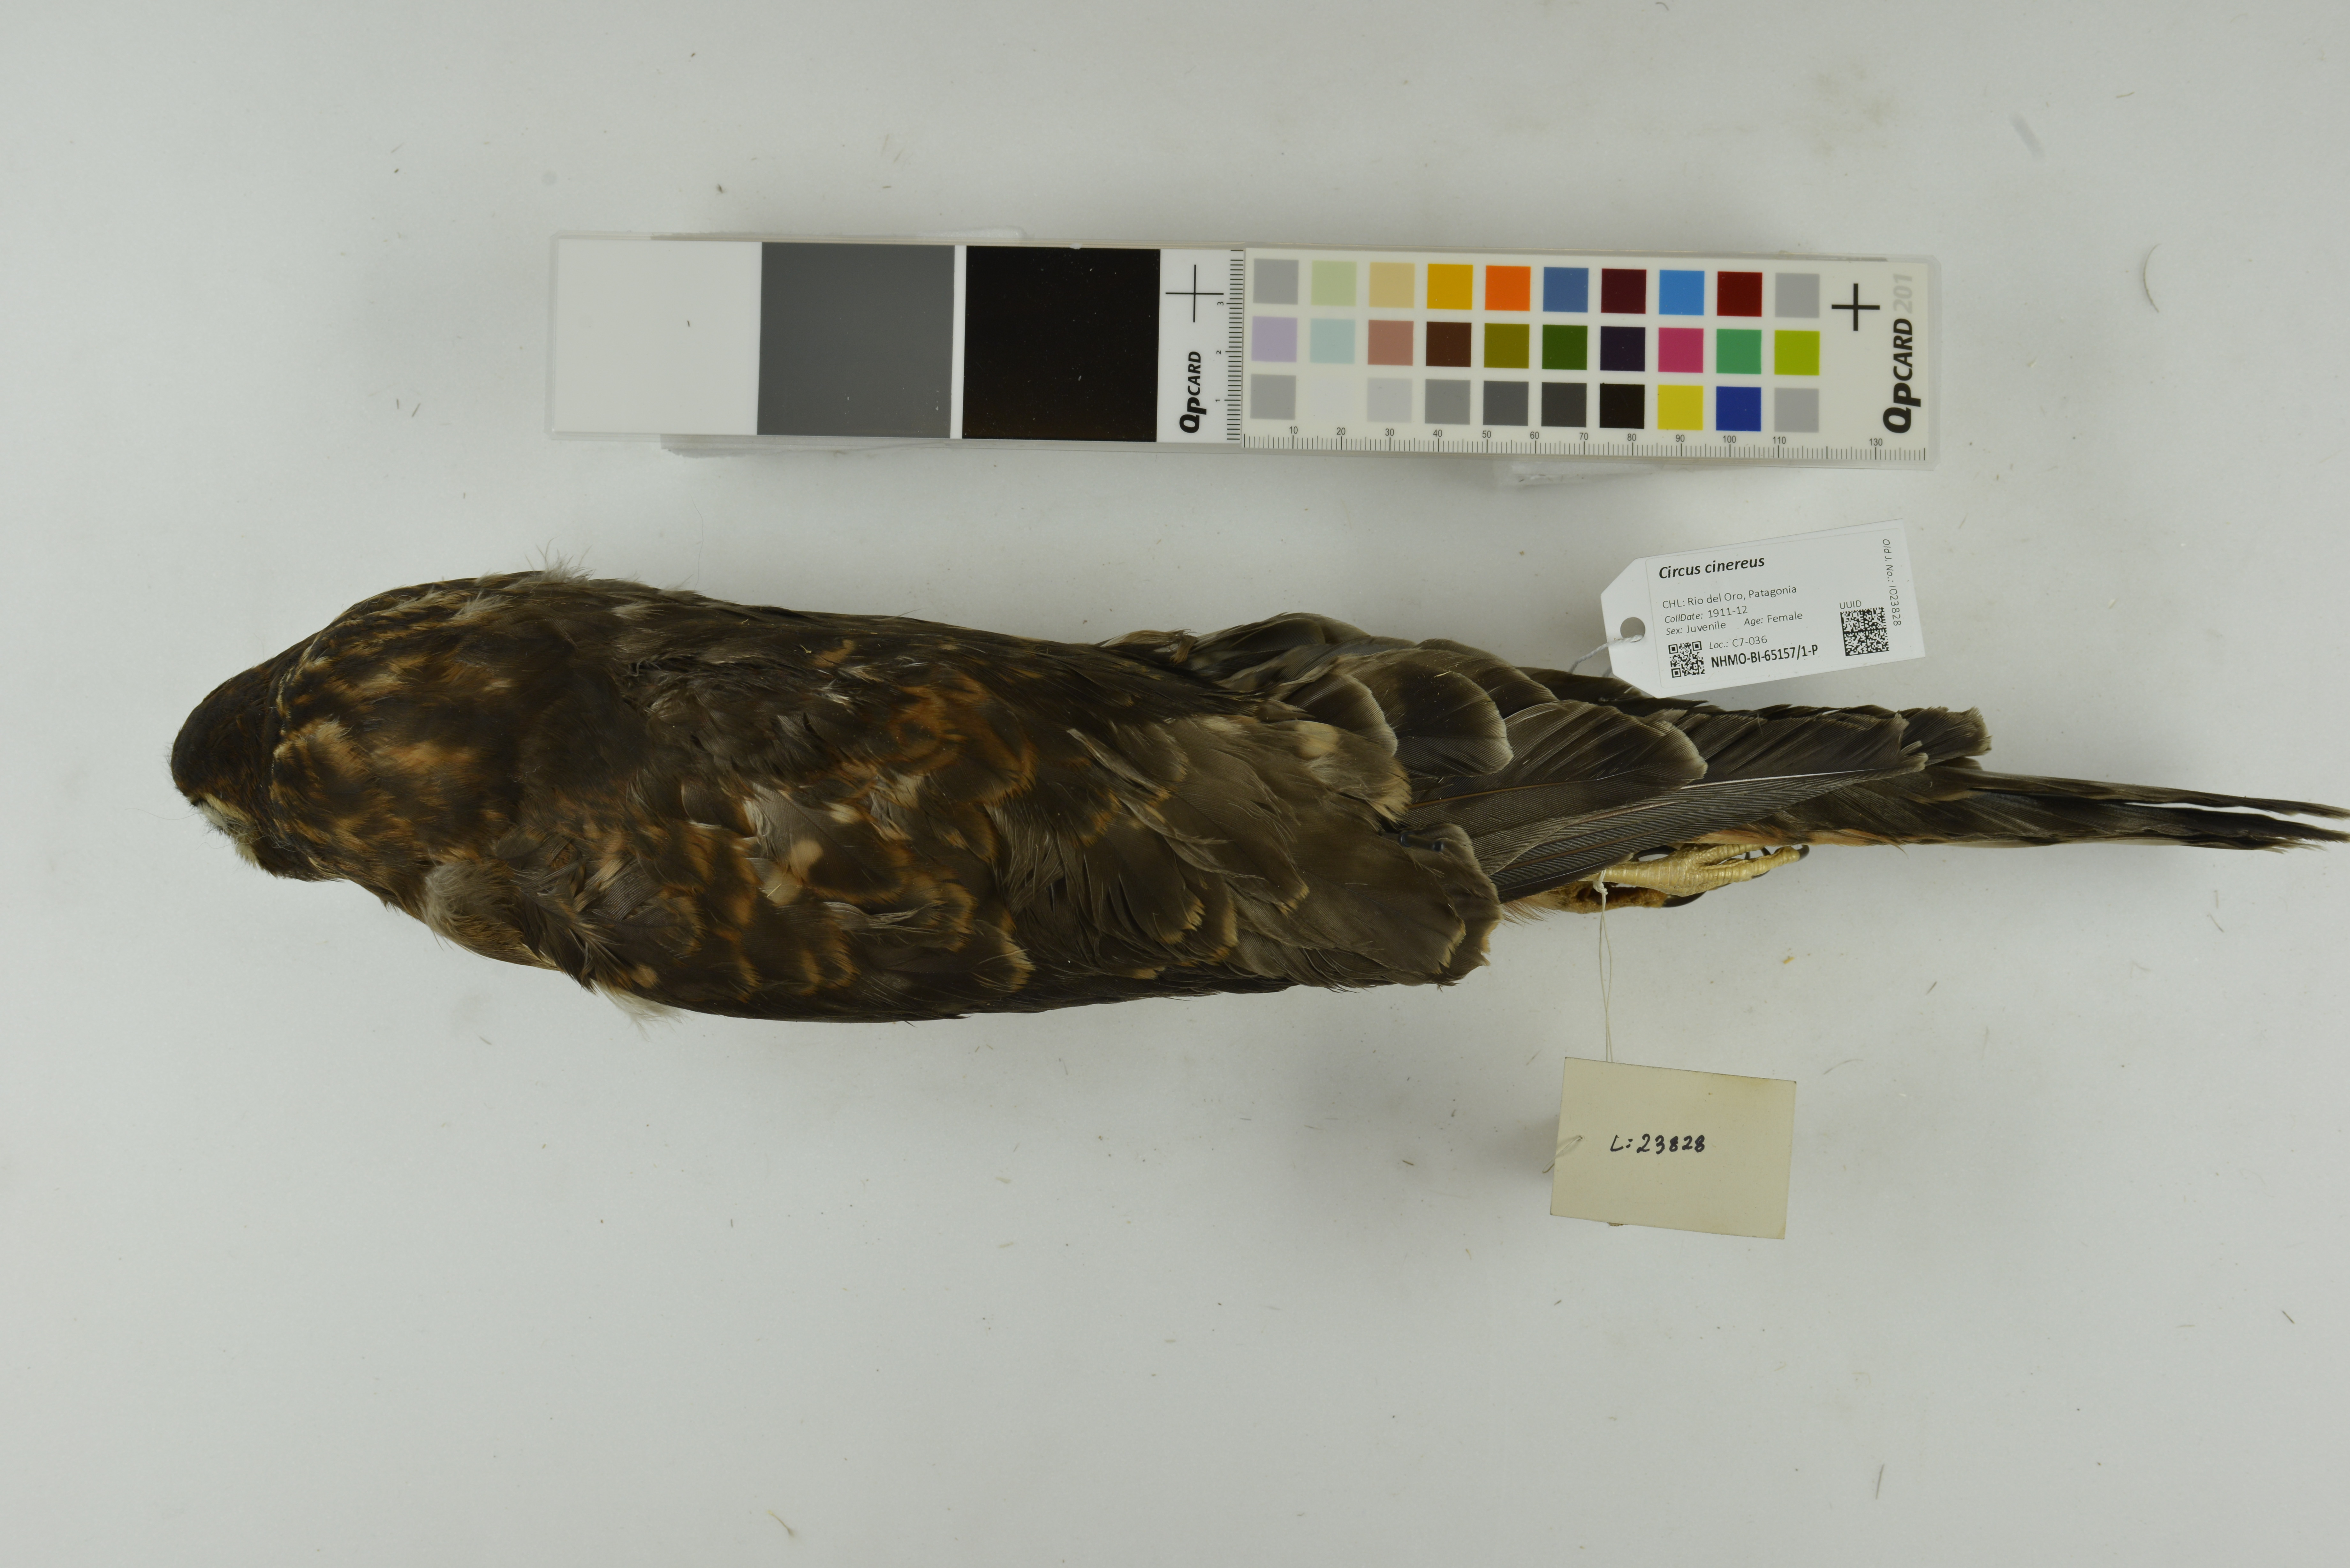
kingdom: Animalia
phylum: Chordata
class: Aves
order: Accipitriformes
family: Accipitridae
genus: Circus
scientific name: Circus cinereus
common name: Cinereous harrier
